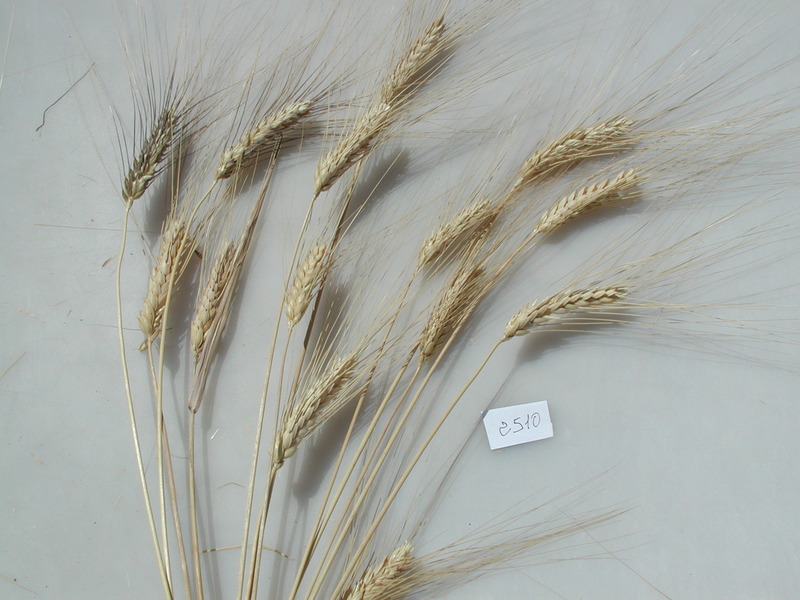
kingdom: Plantae
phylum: Tracheophyta
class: Liliopsida
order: Poales
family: Poaceae
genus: Triticum
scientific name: Triticum turgidum
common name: Wheat
